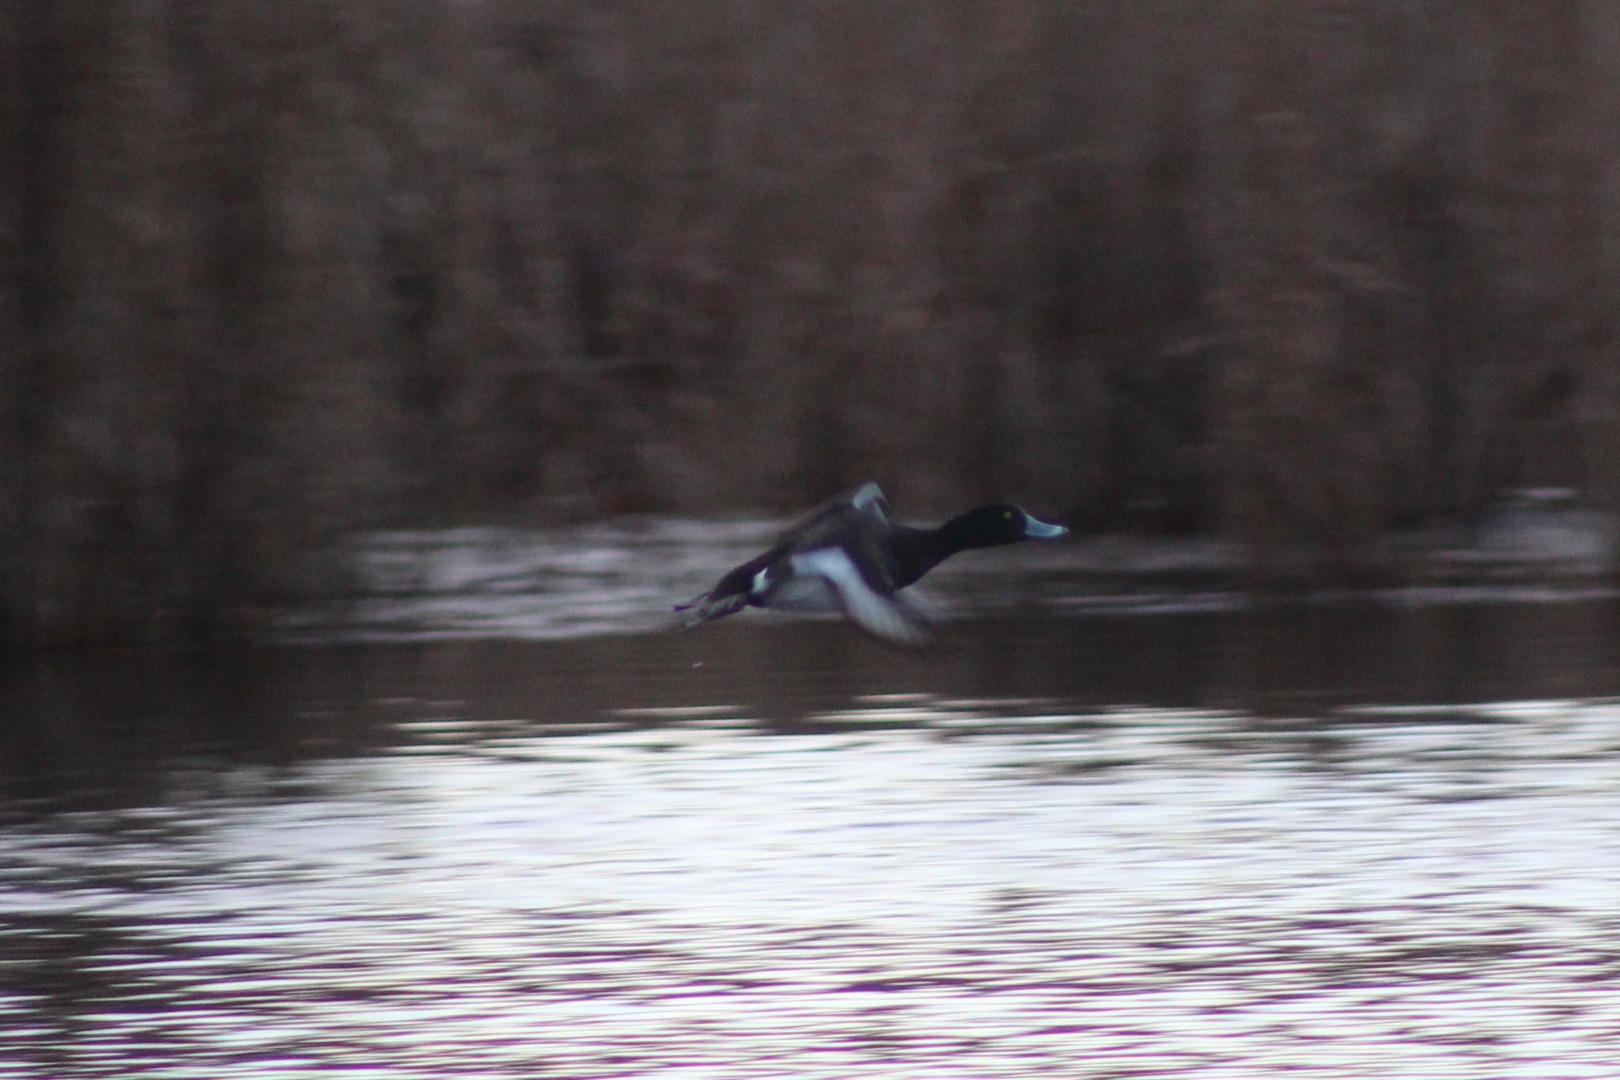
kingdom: Animalia
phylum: Chordata
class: Aves
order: Anseriformes
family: Anatidae
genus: Aythya
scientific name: Aythya fuligula
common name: Troldand
